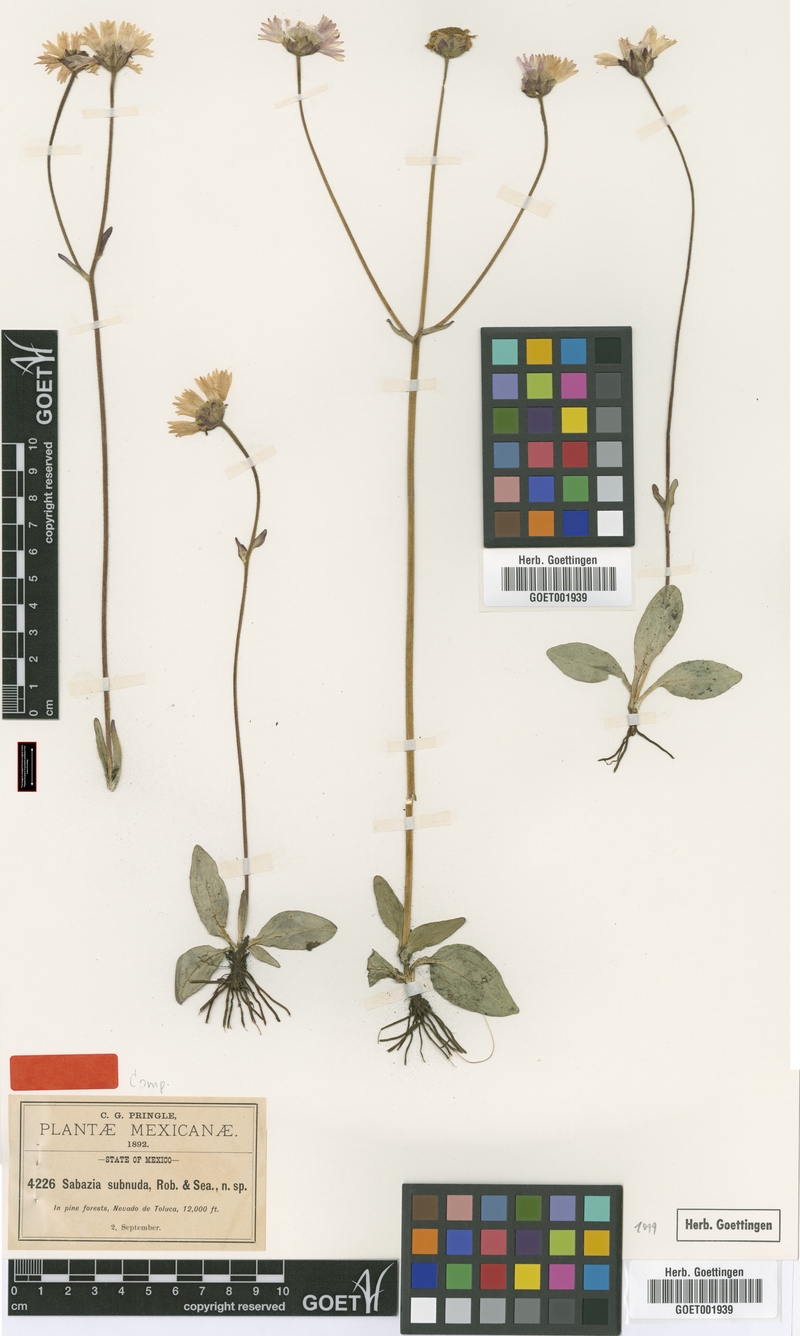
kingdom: Plantae
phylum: Tracheophyta
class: Magnoliopsida
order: Asterales
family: Asteraceae
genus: Selloa
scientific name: Selloa plantaginea
